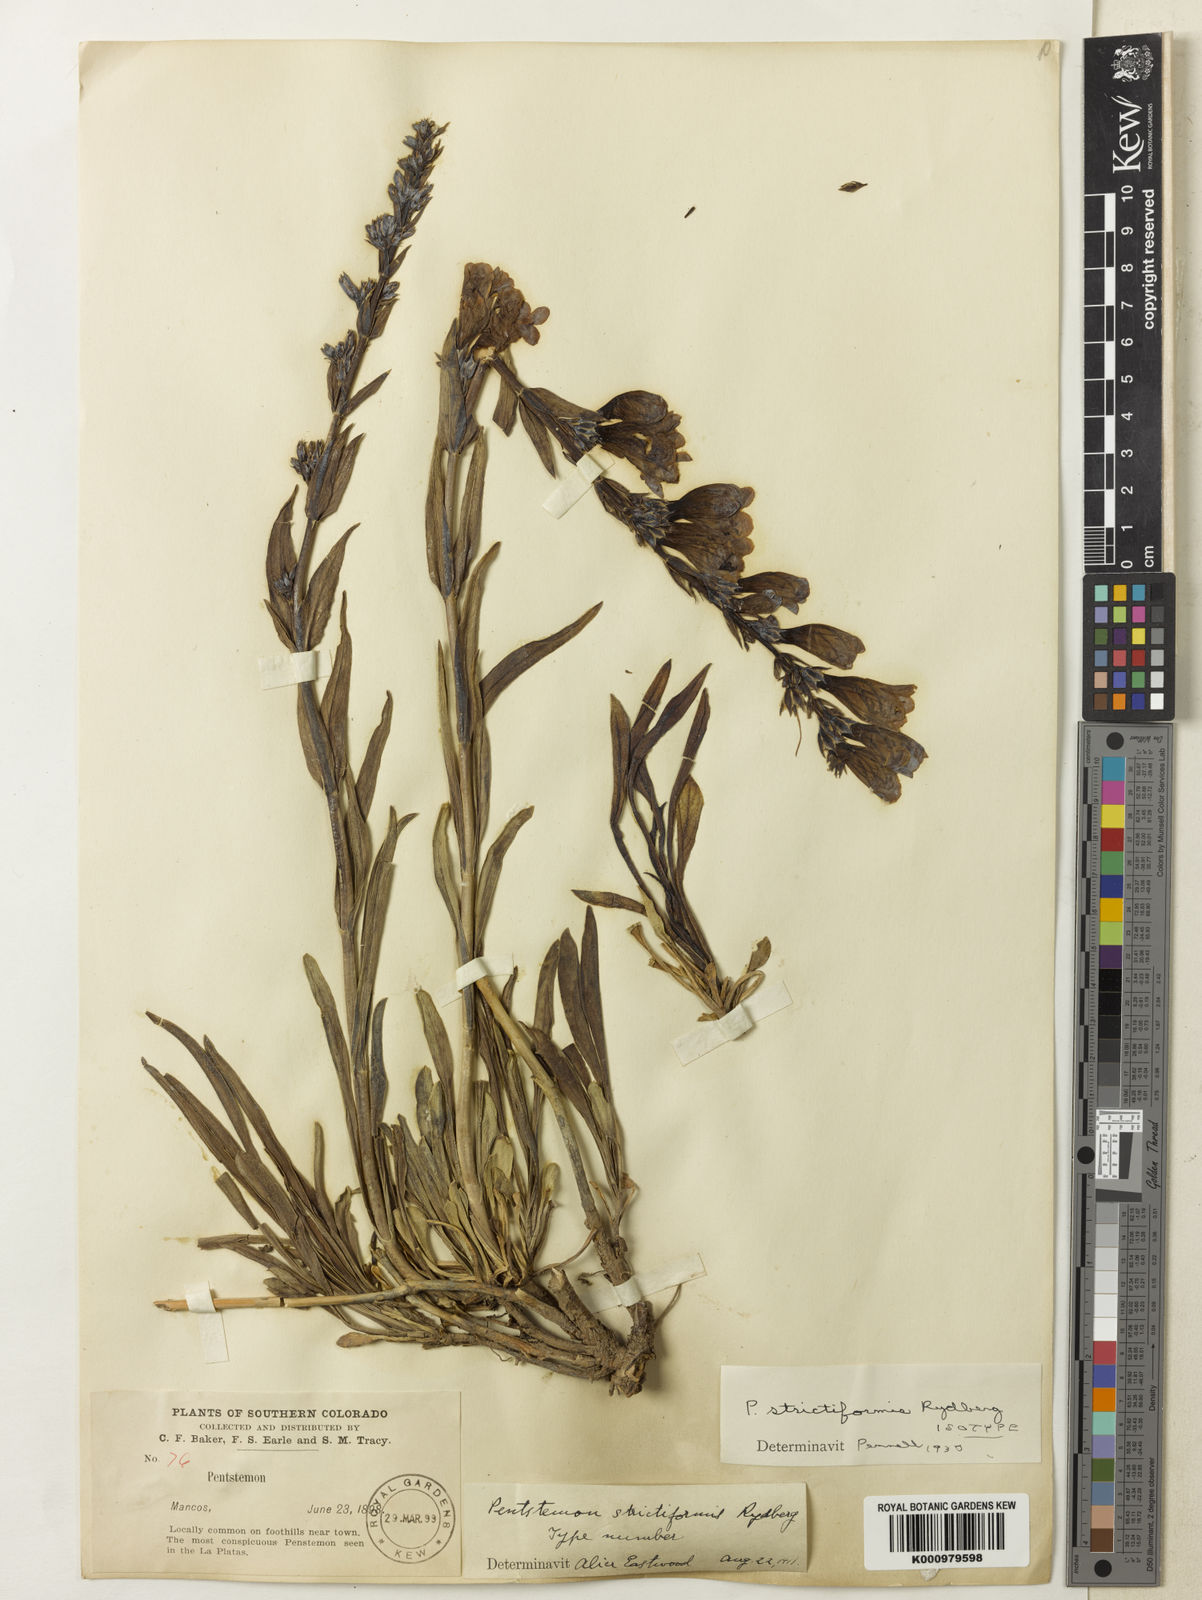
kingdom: Plantae
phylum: Tracheophyta
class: Magnoliopsida
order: Lamiales
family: Plantaginaceae
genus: Penstemon
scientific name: Penstemon strictus
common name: Rocky mountain penstemon
